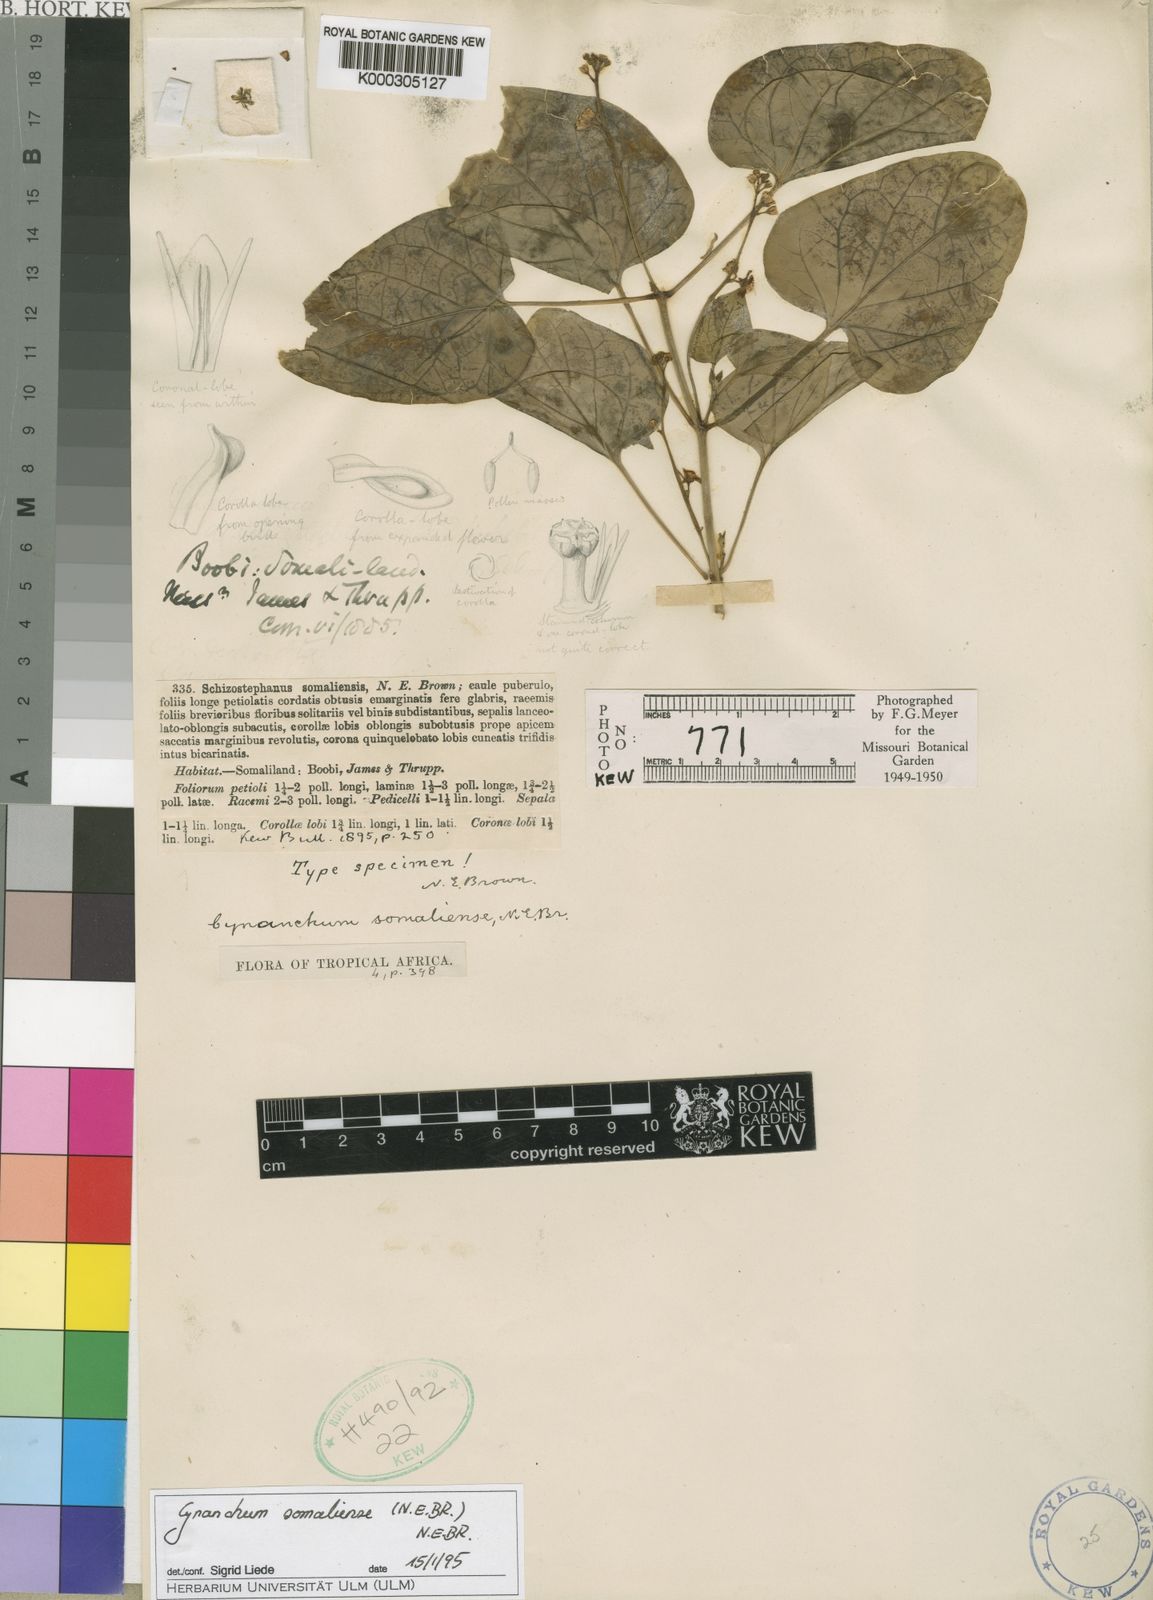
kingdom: Plantae
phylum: Tracheophyta
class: Magnoliopsida
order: Gentianales
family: Apocynaceae
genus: Cynanchum
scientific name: Cynanchum somaliense
